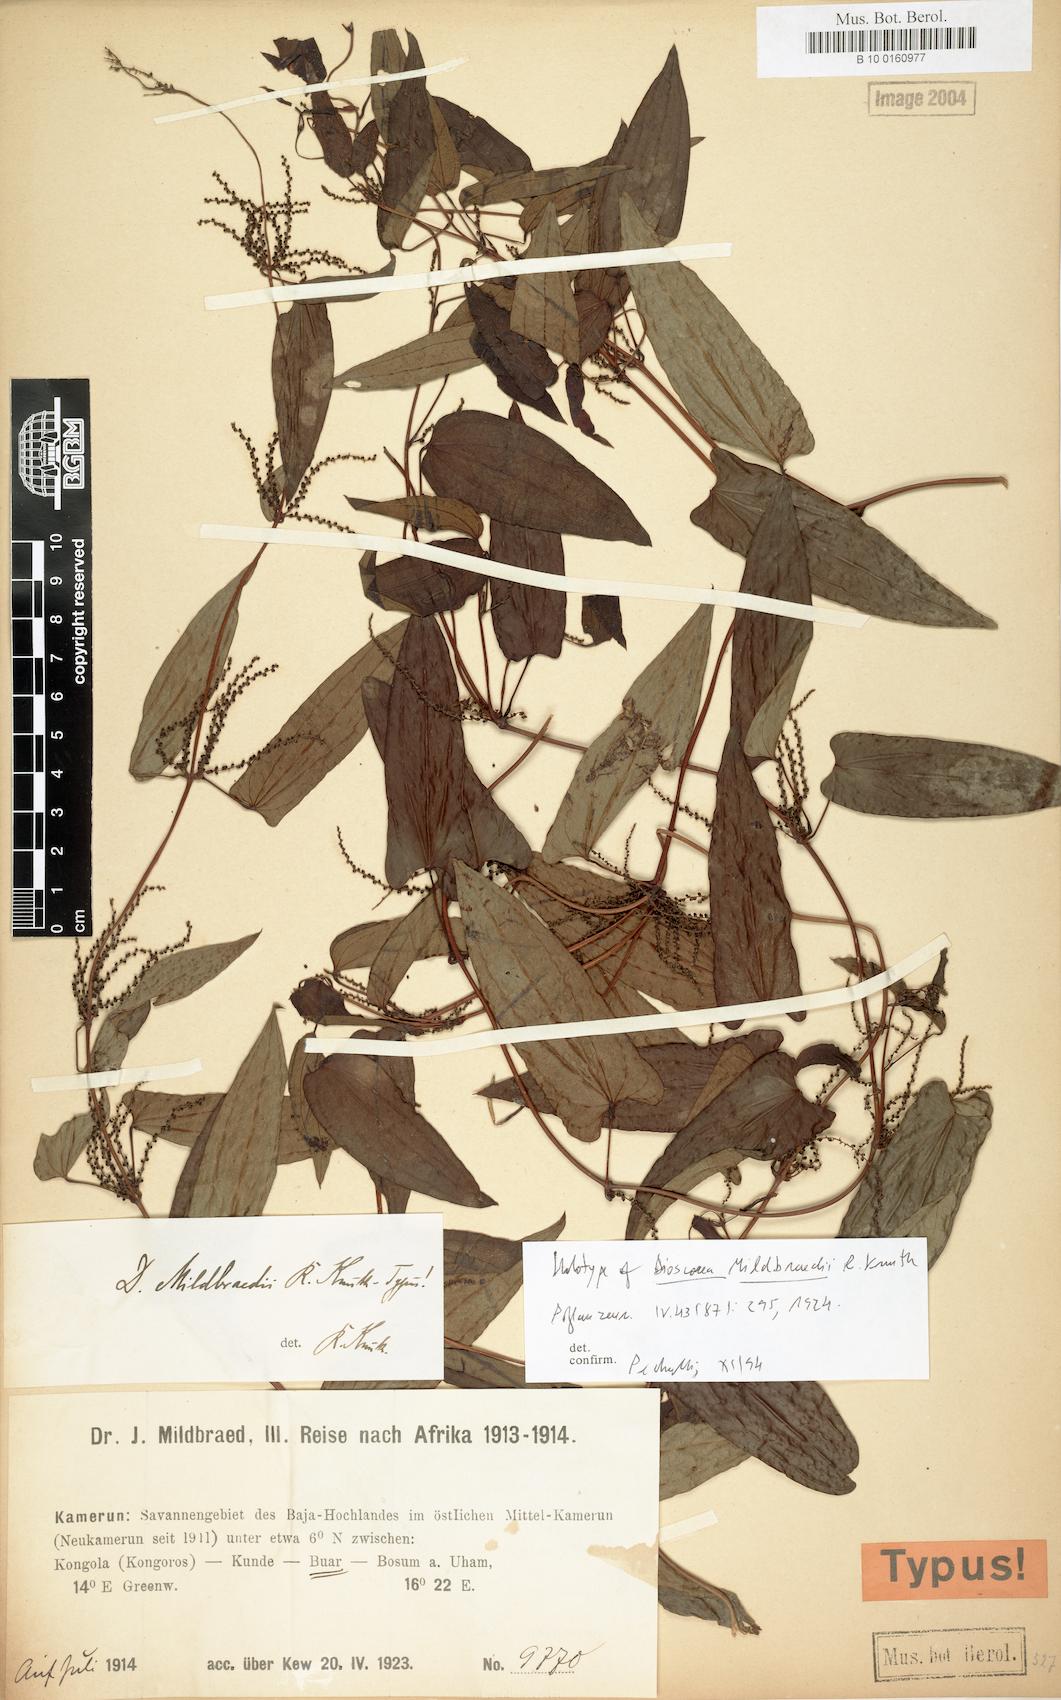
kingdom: Plantae
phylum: Tracheophyta
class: Liliopsida
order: Dioscoreales
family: Dioscoreaceae
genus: Dioscorea
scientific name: Dioscorea sagittifolia
